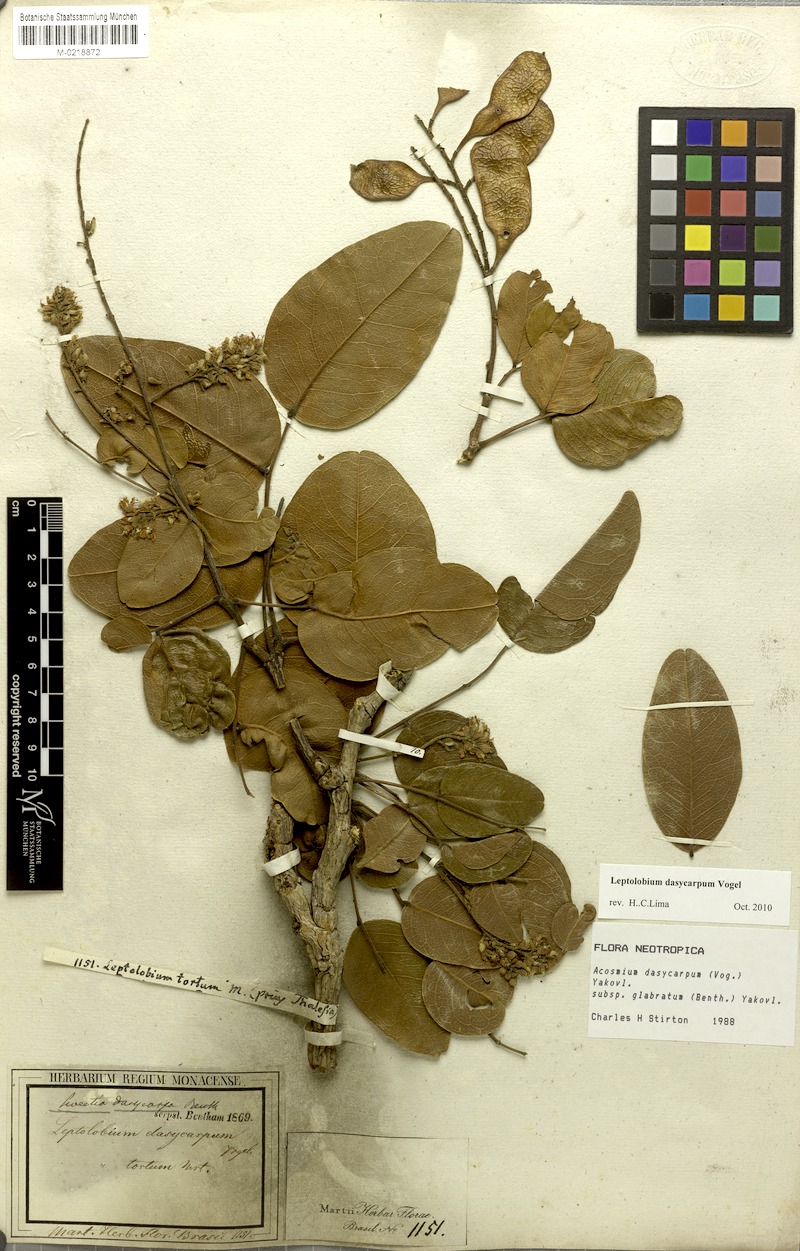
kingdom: Plantae
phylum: Tracheophyta
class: Magnoliopsida
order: Fabales
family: Fabaceae
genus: Leptolobium
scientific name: Leptolobium dasycarpum
